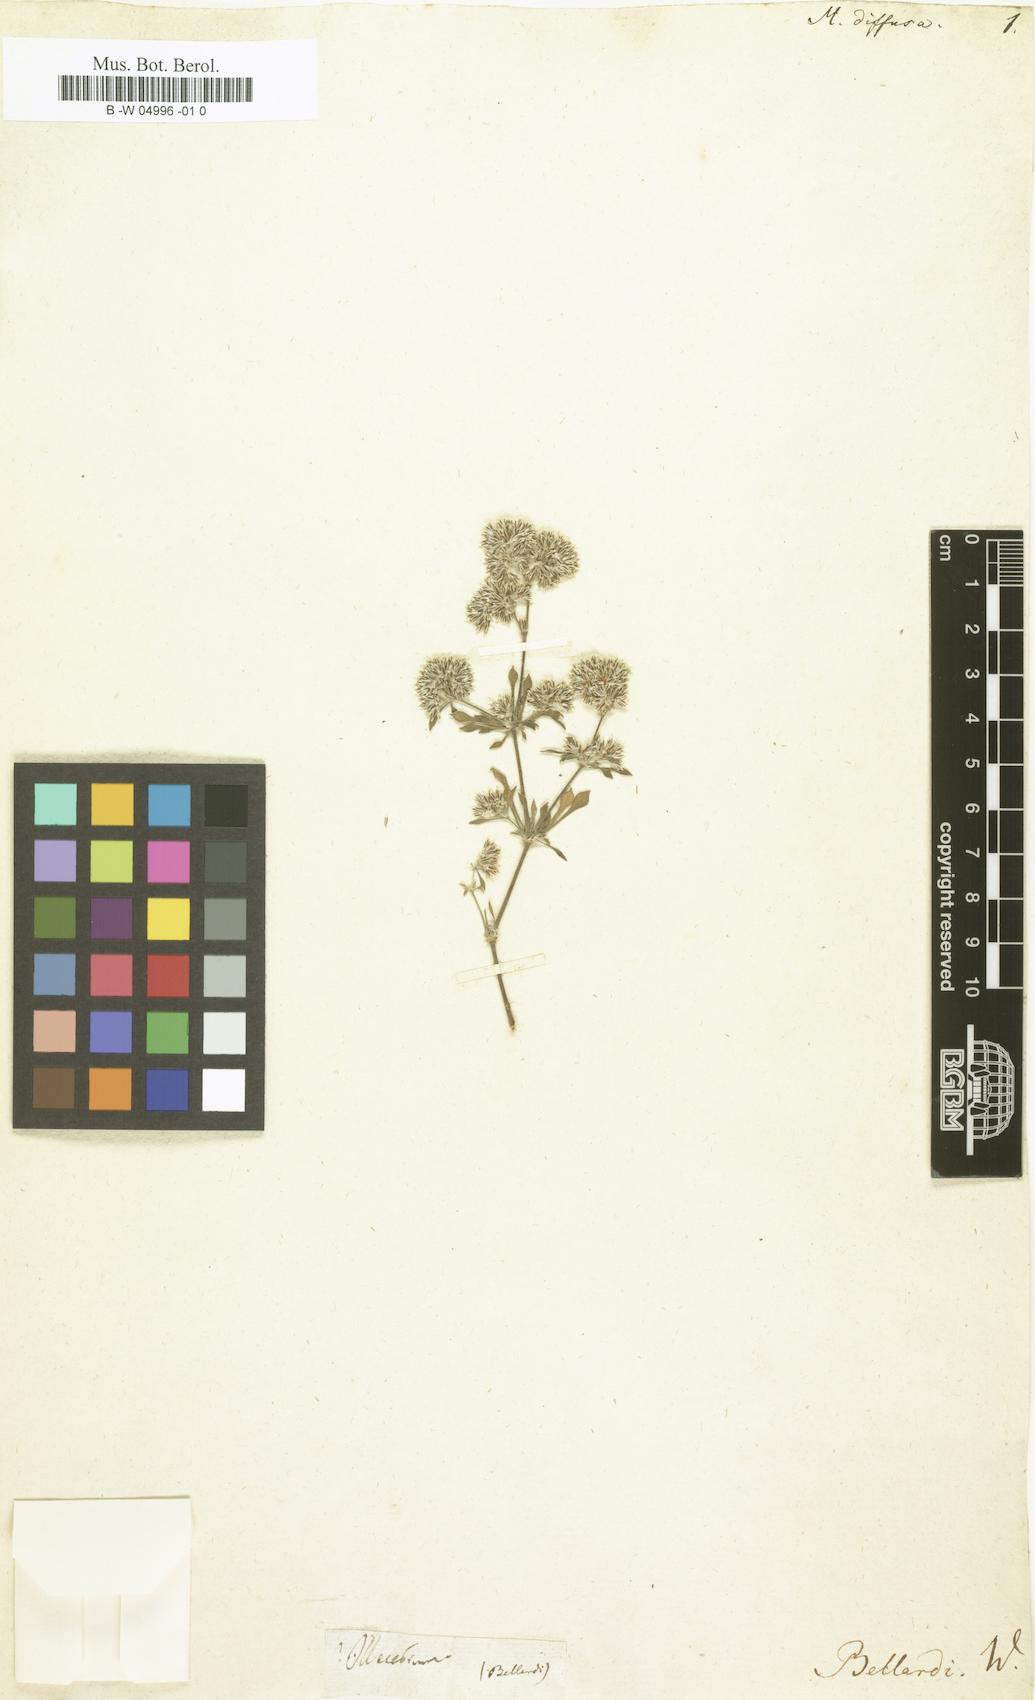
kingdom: Plantae
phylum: Tracheophyta
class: Magnoliopsida
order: Caryophyllales
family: Caryophyllaceae
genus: Polycarpaea
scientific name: Polycarpaea divaricata
